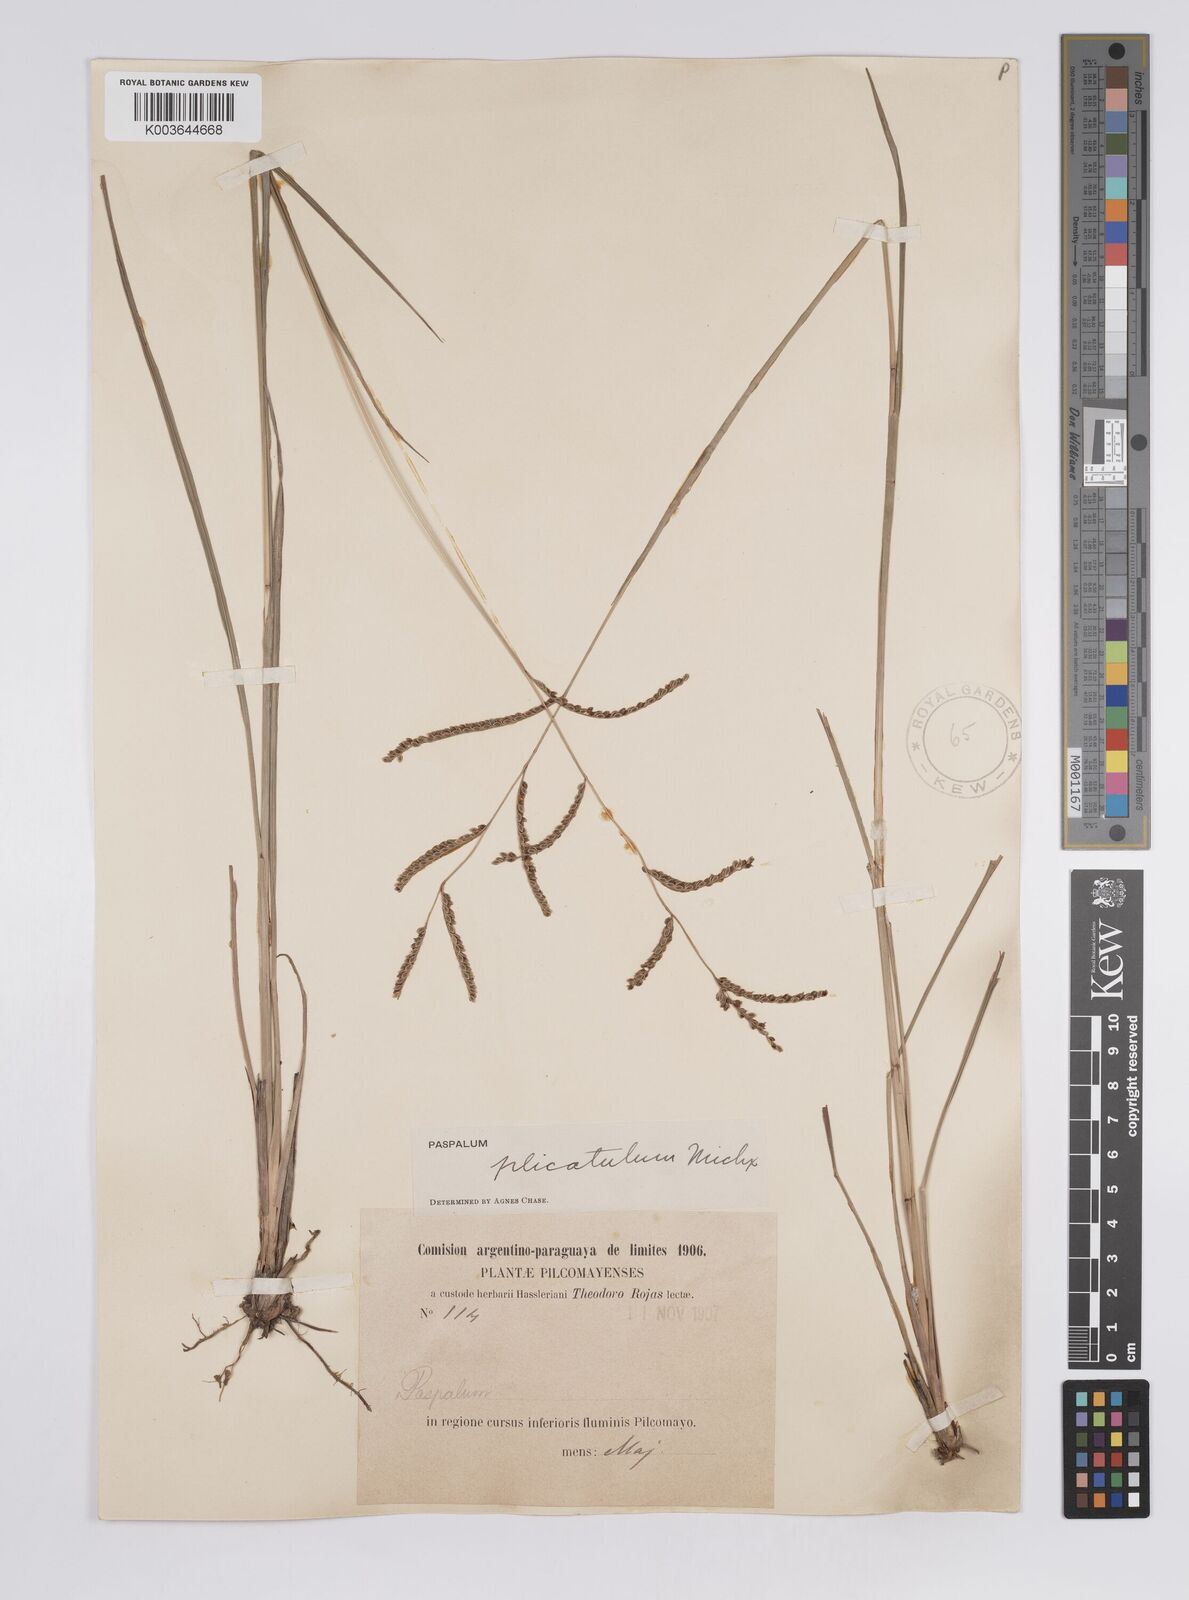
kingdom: Plantae
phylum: Tracheophyta
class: Liliopsida
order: Poales
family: Poaceae
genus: Paspalum
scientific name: Paspalum plicatulum
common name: Top paspalum
